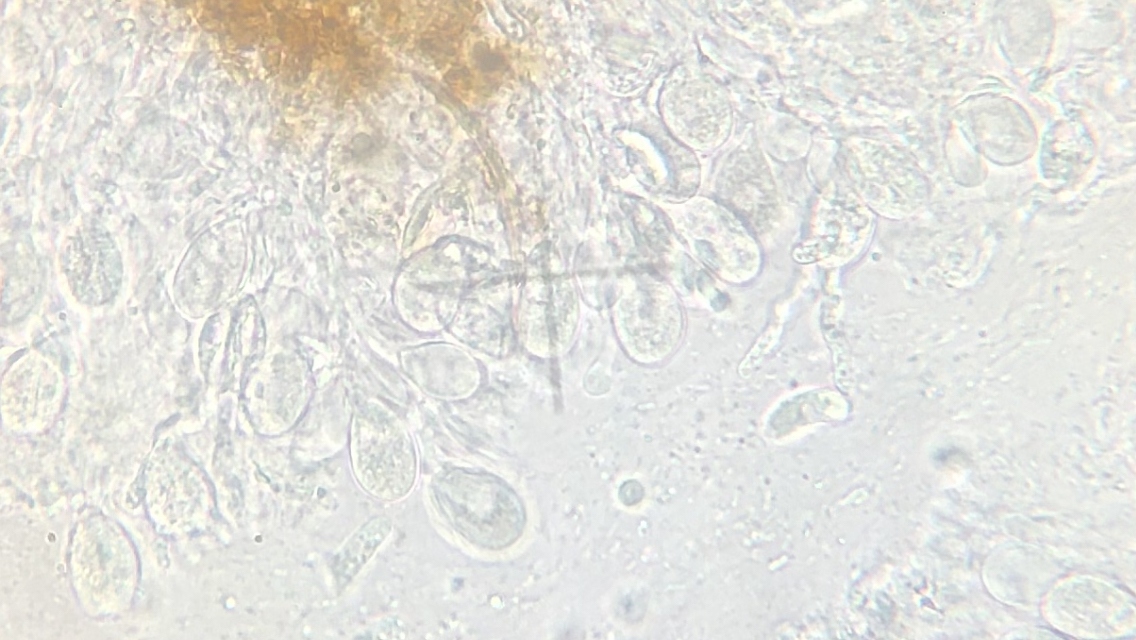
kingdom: Fungi
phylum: Basidiomycota
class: Tremellomycetes
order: Tremellales
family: Exidiaceae
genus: Exidiopsis
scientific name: Exidiopsis effusa
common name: smuk bævrehinde
